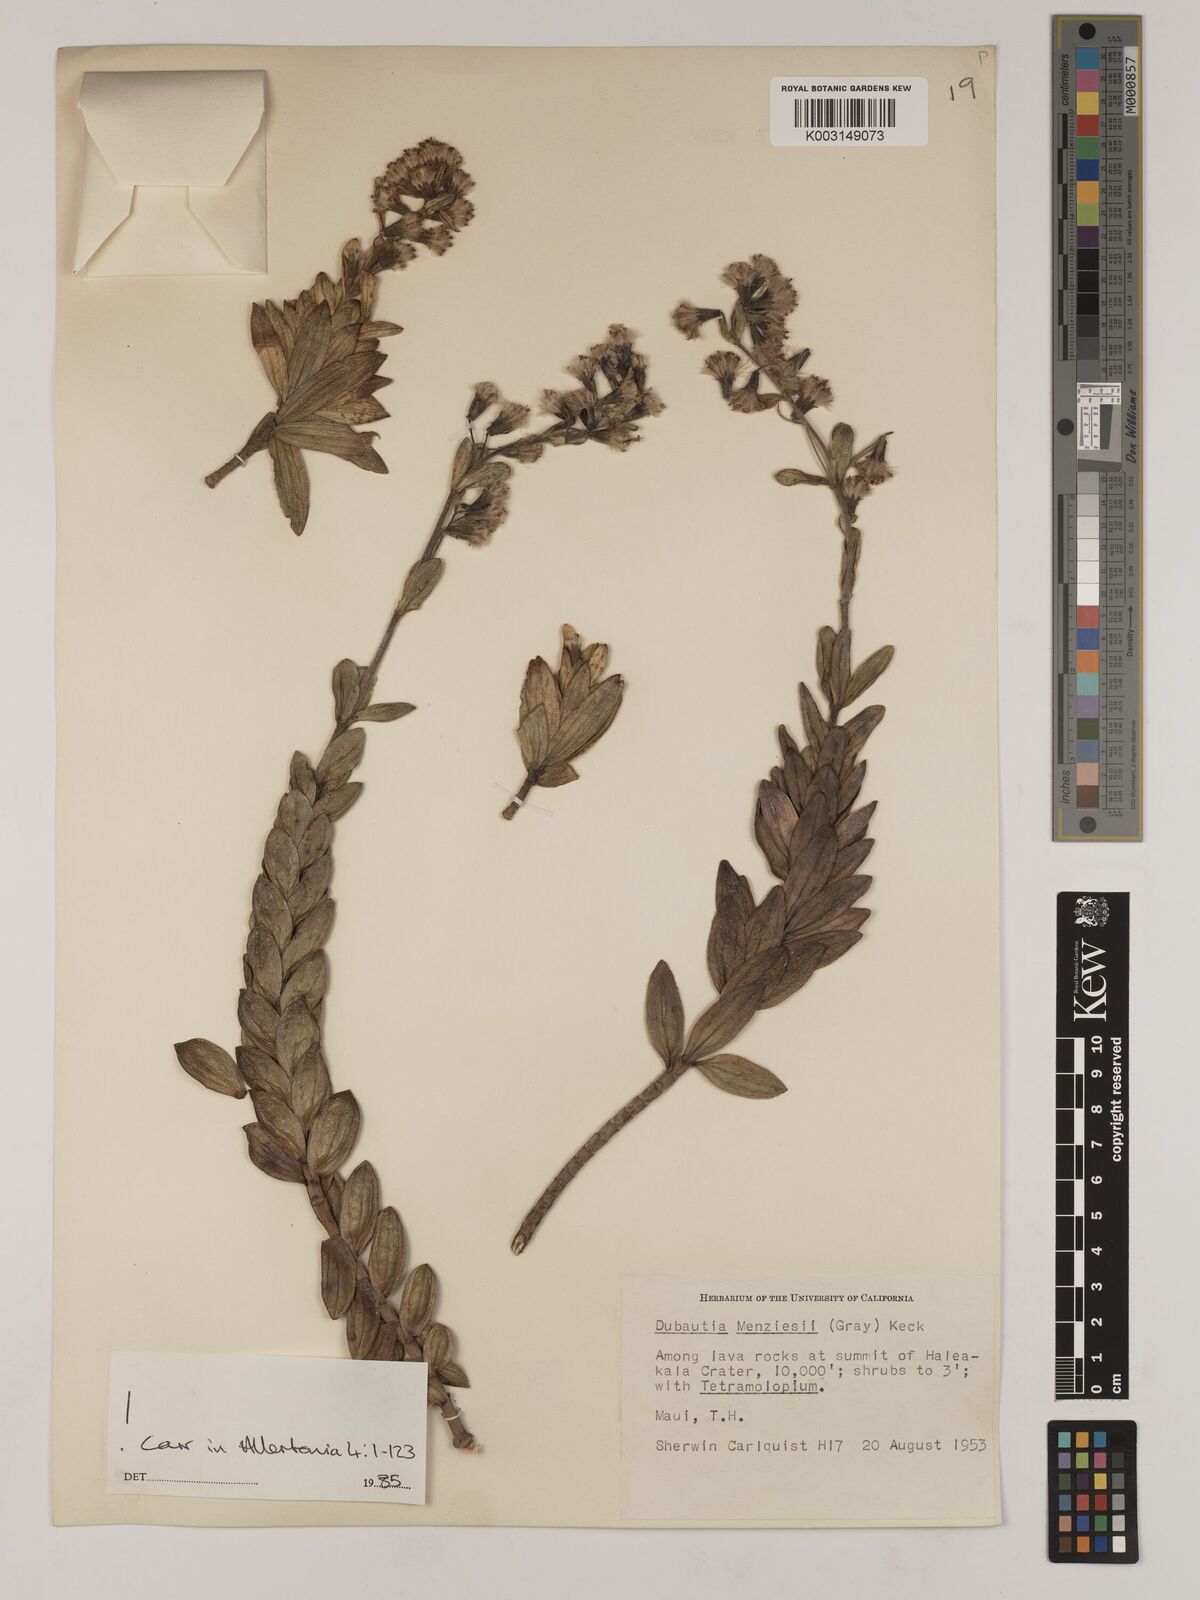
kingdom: Plantae
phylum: Tracheophyta
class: Magnoliopsida
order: Asterales
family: Asteraceae
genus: Dubautia
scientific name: Dubautia menziesii
